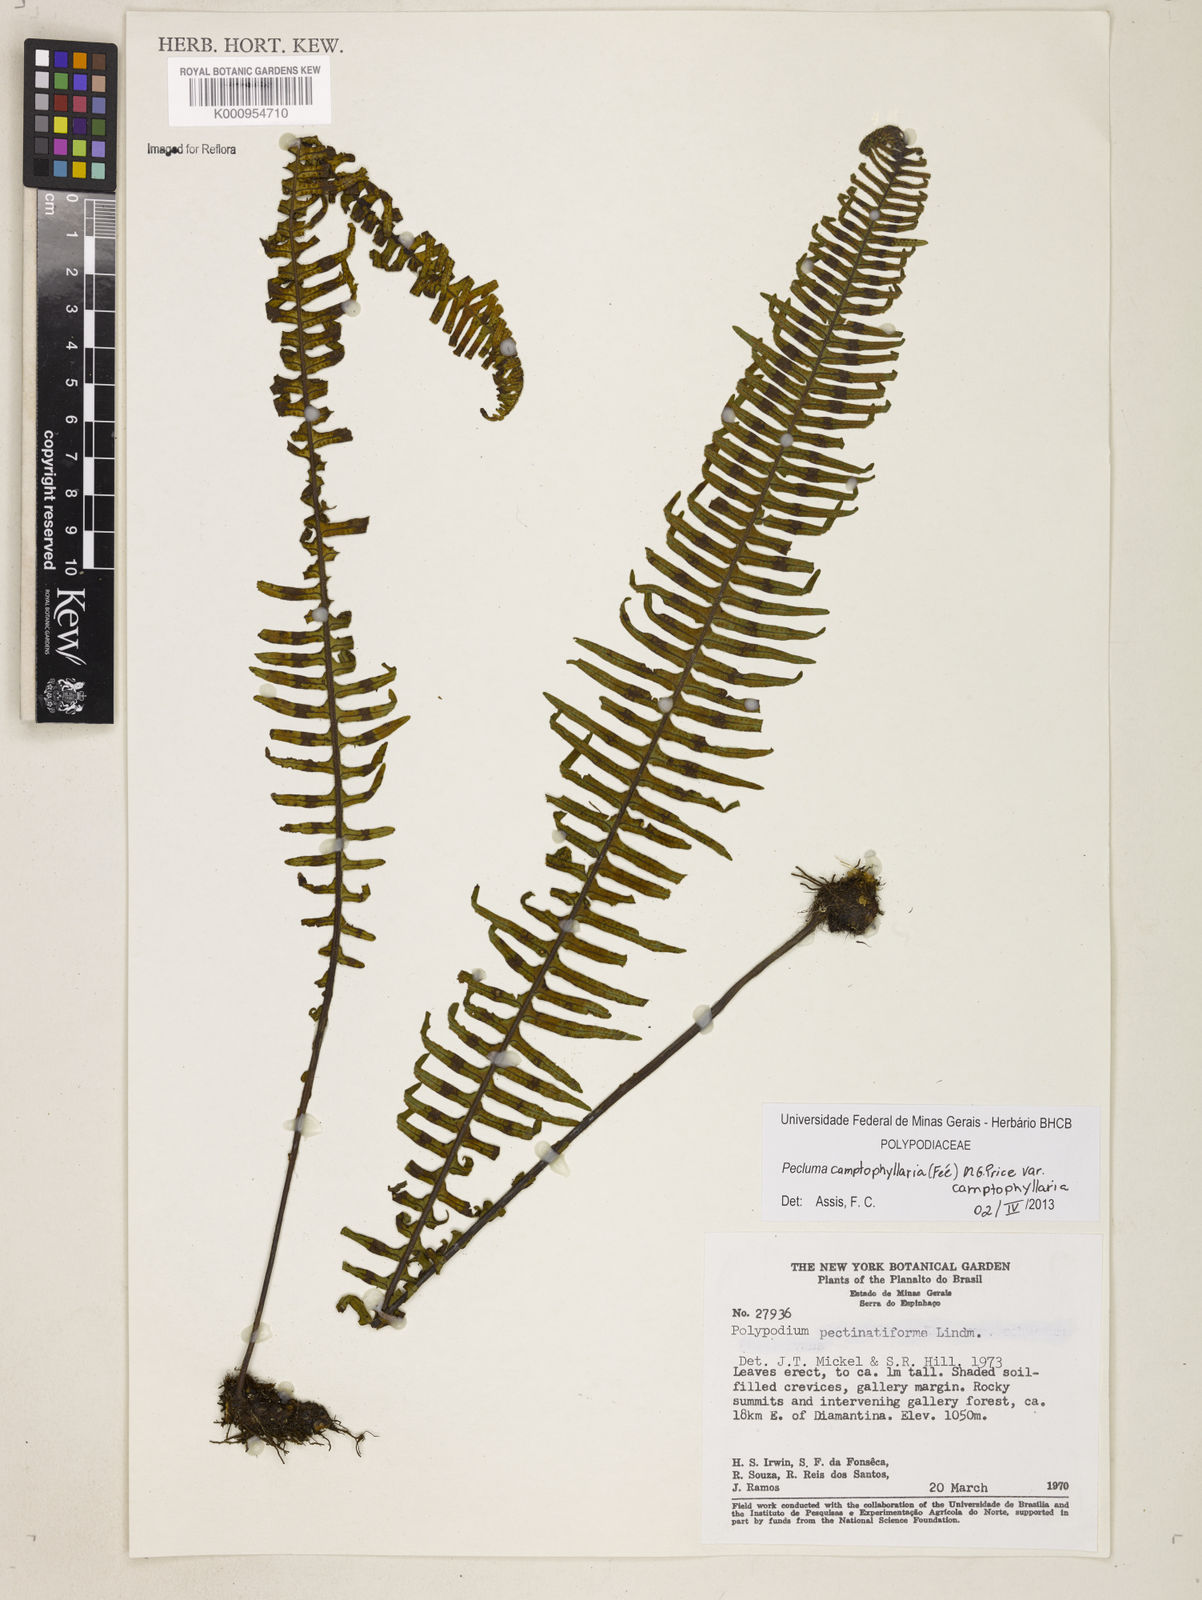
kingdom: Plantae
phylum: Tracheophyta
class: Polypodiopsida
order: Polypodiales
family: Polypodiaceae
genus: Pecluma
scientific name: Pecluma
